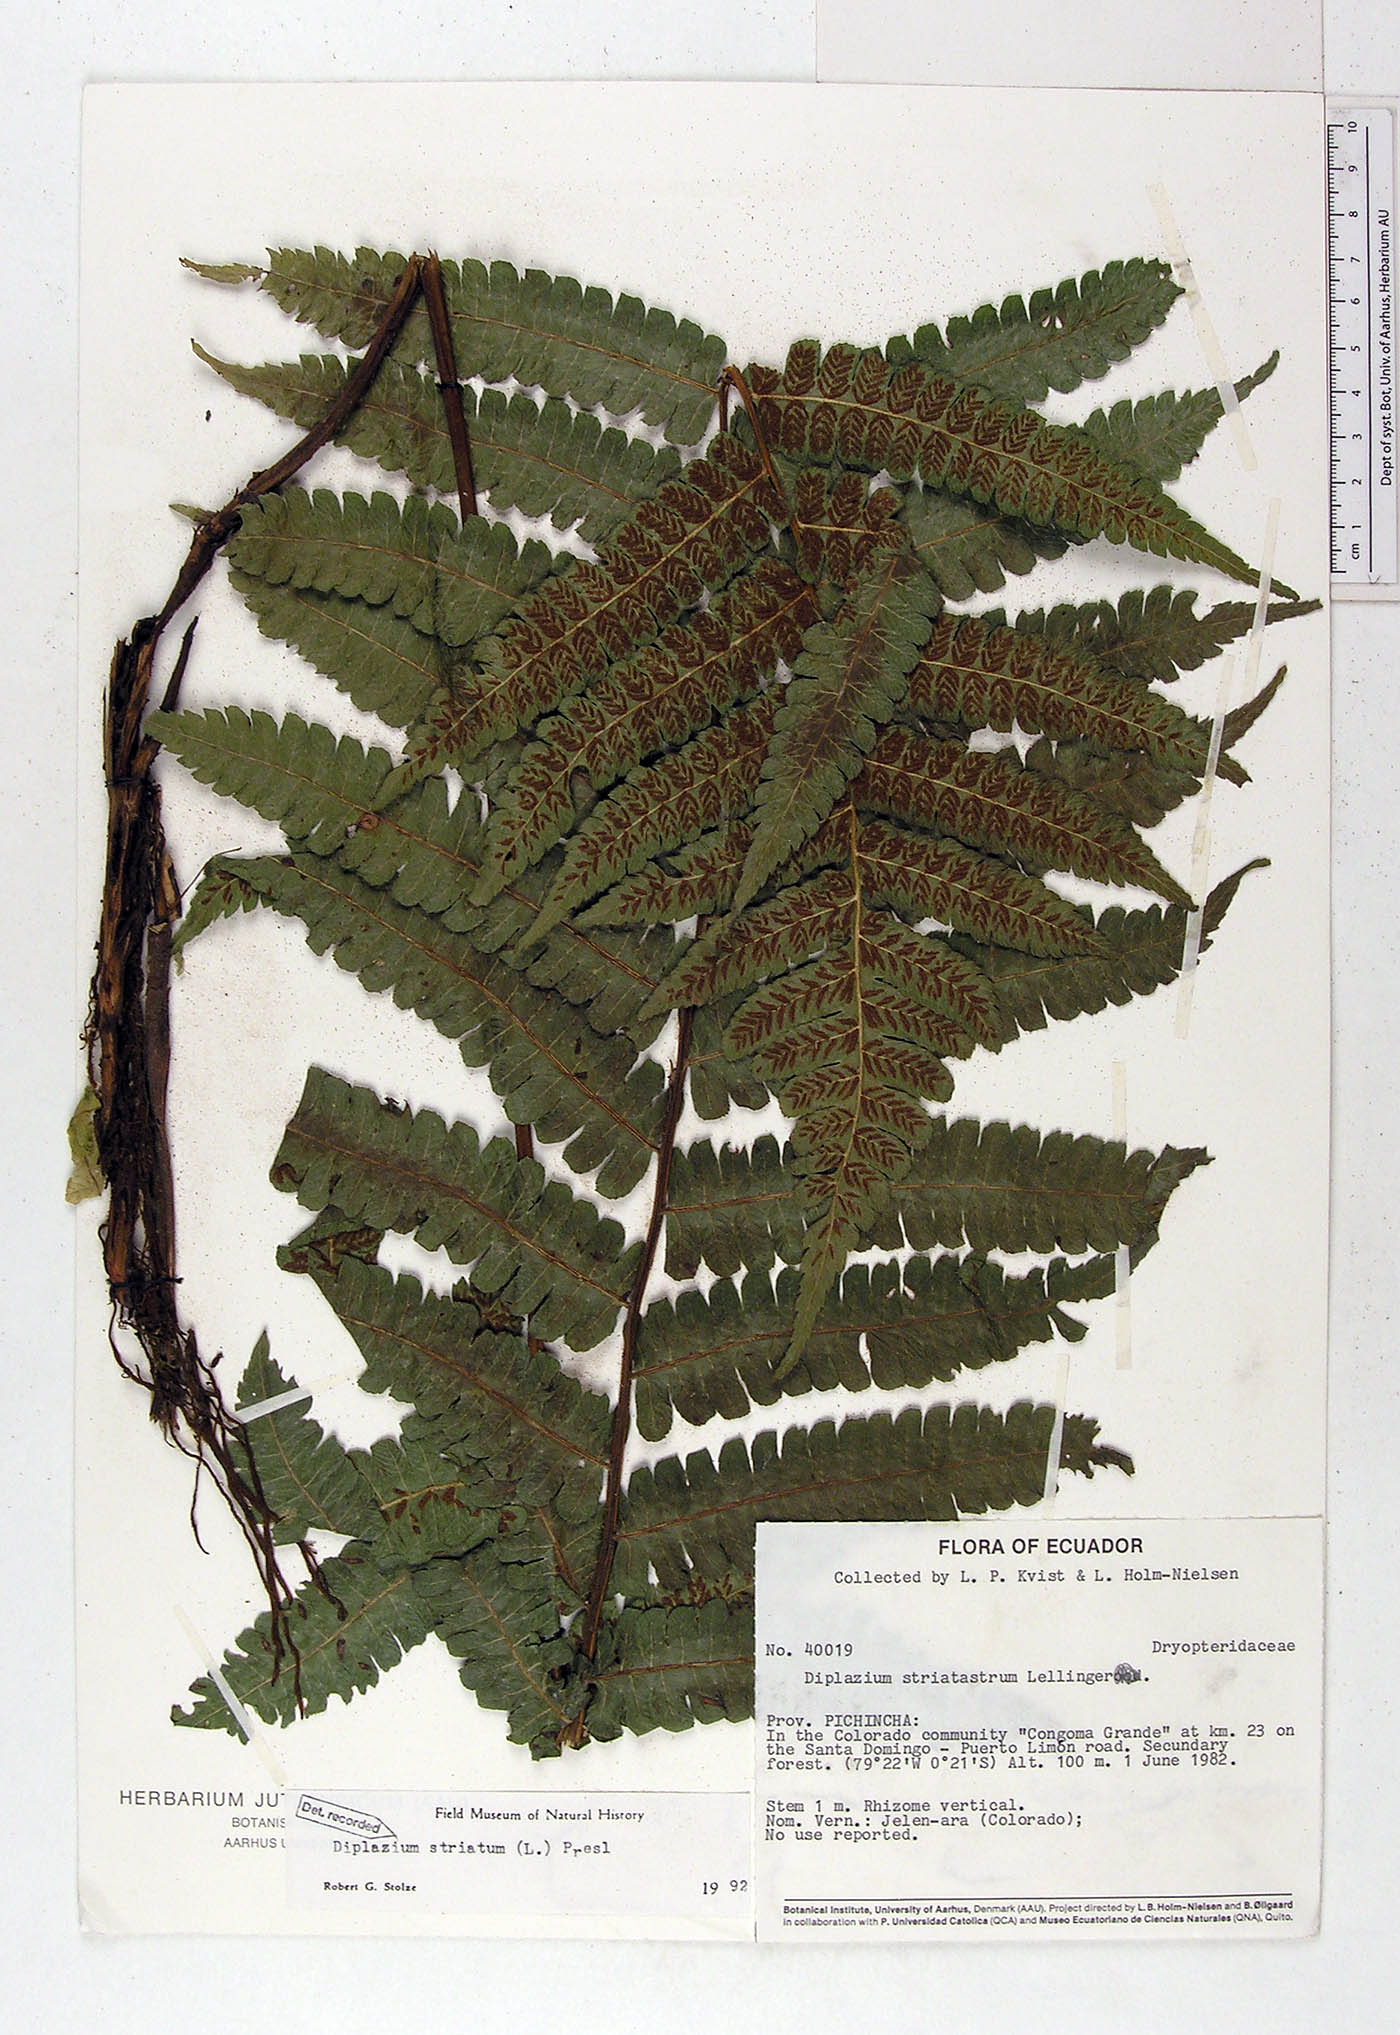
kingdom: Plantae
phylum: Tracheophyta
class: Polypodiopsida
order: Polypodiales
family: Athyriaceae
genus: Diplazium
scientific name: Diplazium striatum
